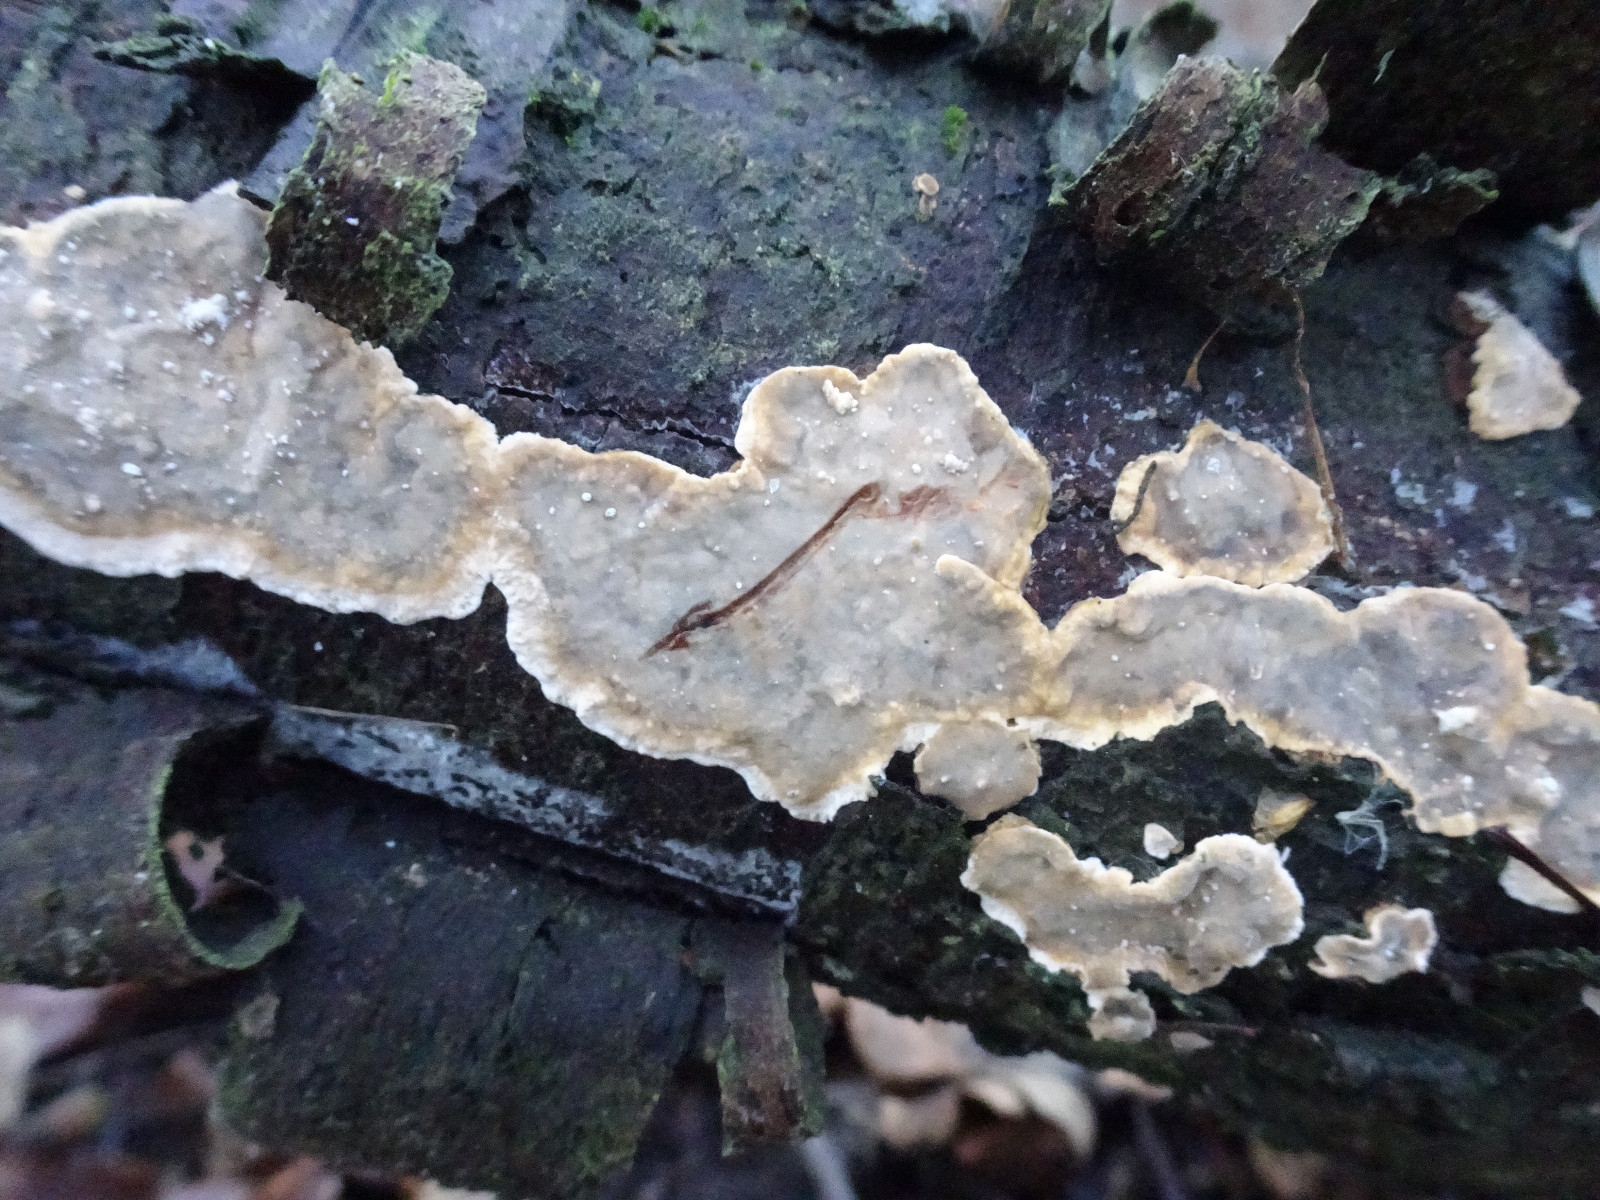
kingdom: Fungi
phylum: Basidiomycota
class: Agaricomycetes
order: Russulales
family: Stereaceae
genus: Stereum
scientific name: Stereum rugosum
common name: rynket lædersvamp
